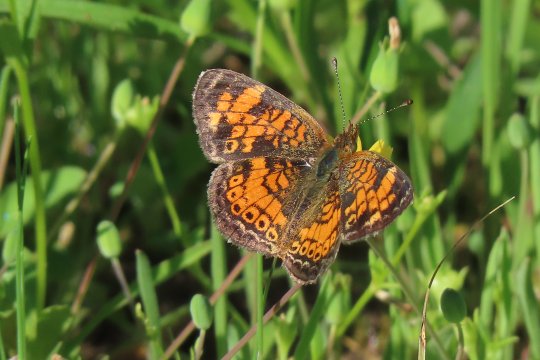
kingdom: Animalia
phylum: Arthropoda
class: Insecta
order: Lepidoptera
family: Nymphalidae
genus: Phyciodes
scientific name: Phyciodes tharos
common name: Pearl Crescent
